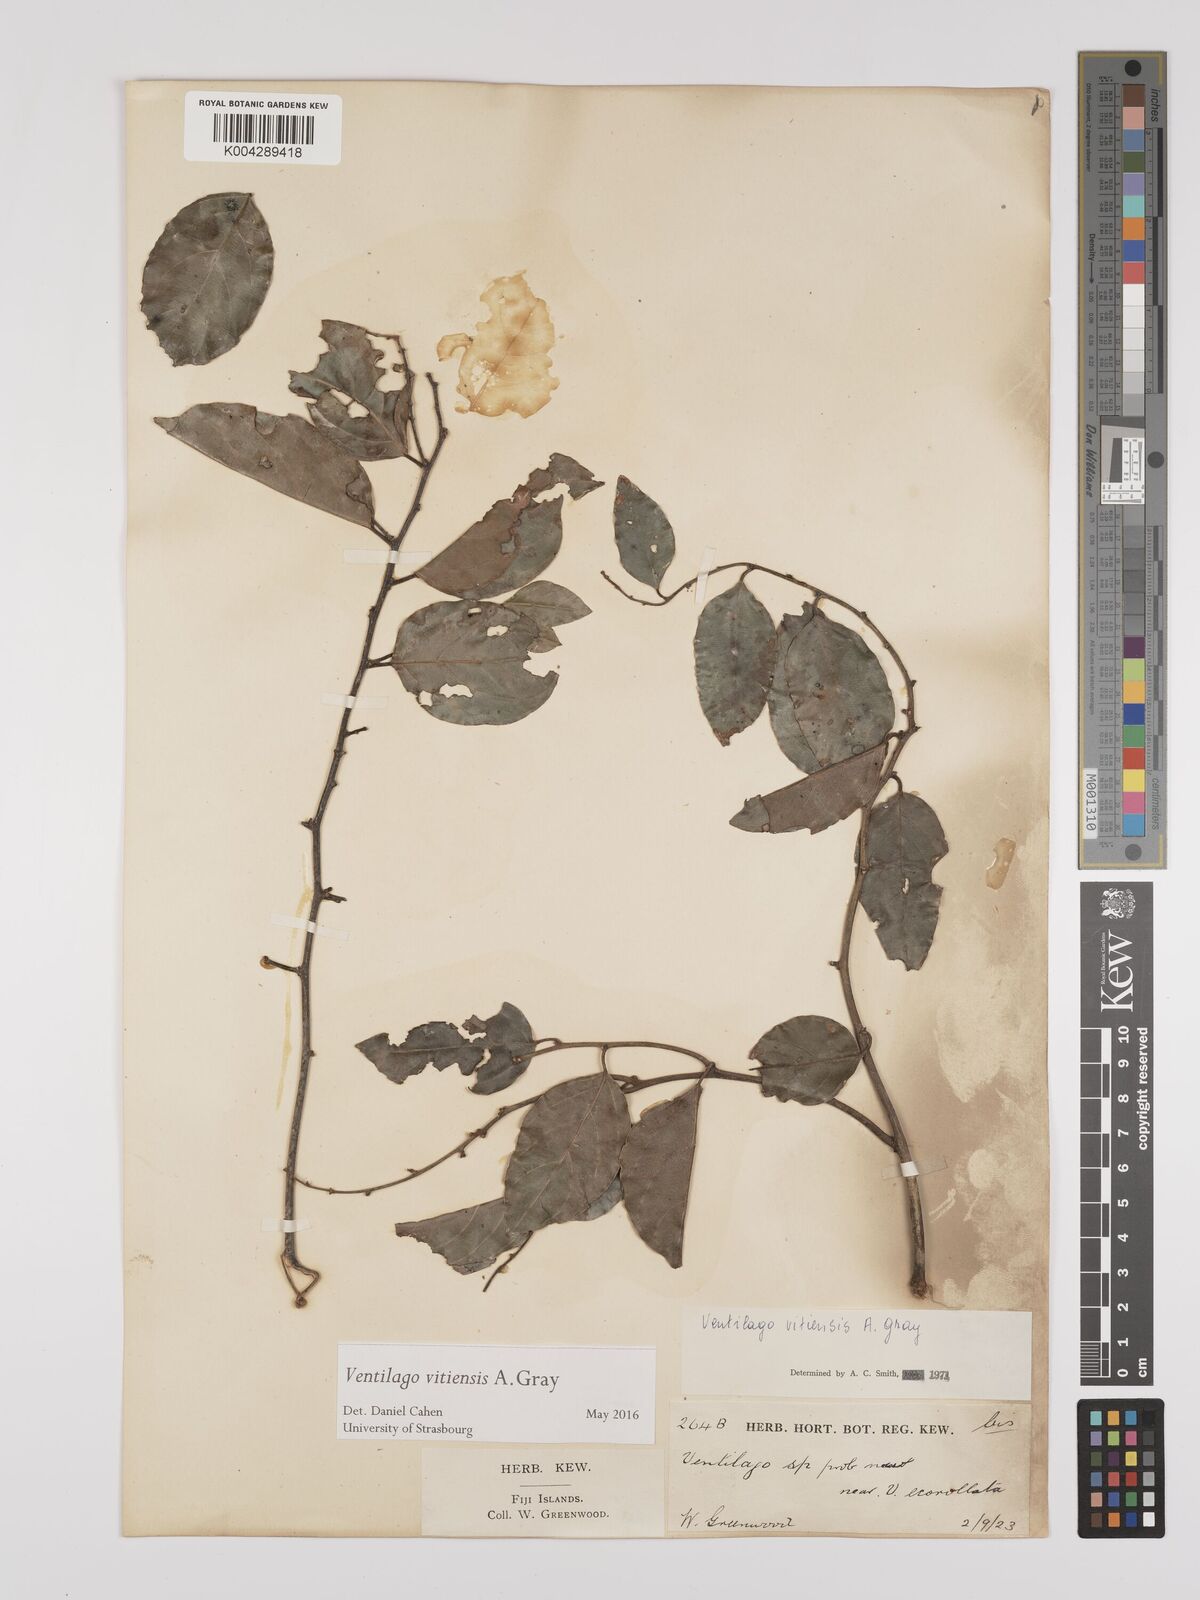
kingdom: Plantae
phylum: Tracheophyta
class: Magnoliopsida
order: Rosales
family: Rhamnaceae
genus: Ventilago
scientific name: Ventilago vitiensis
